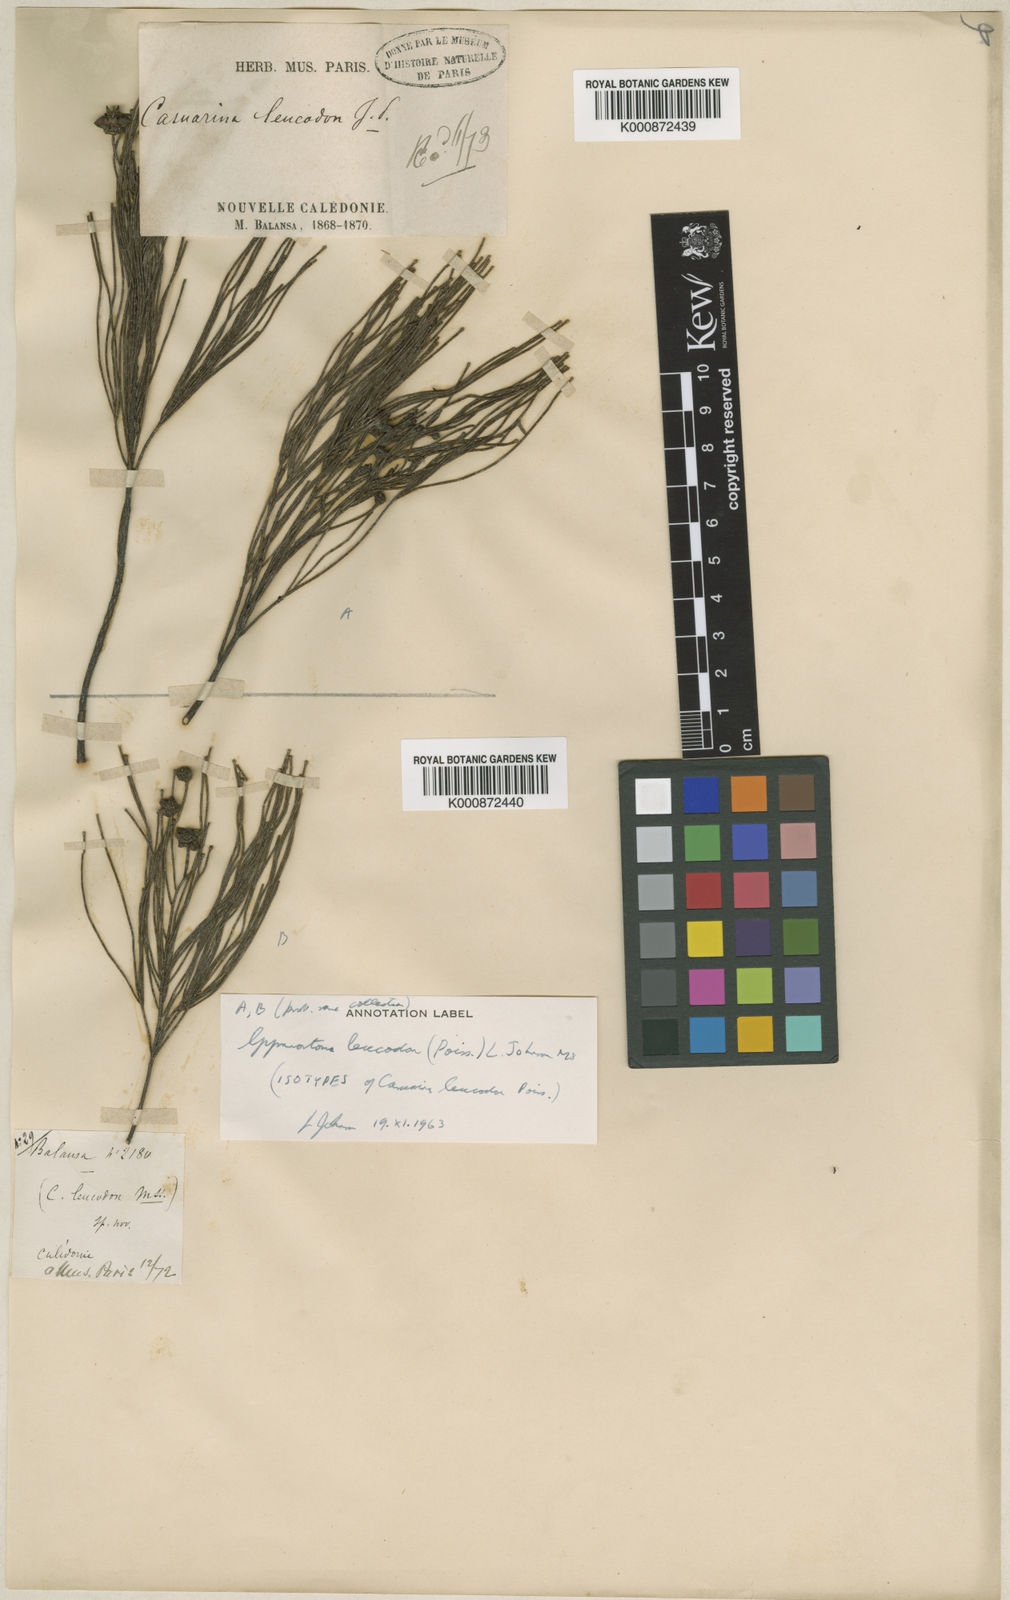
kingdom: Plantae
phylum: Tracheophyta
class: Magnoliopsida
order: Fagales
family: Casuarinaceae
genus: Gymnostoma
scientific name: Gymnostoma leucodon
